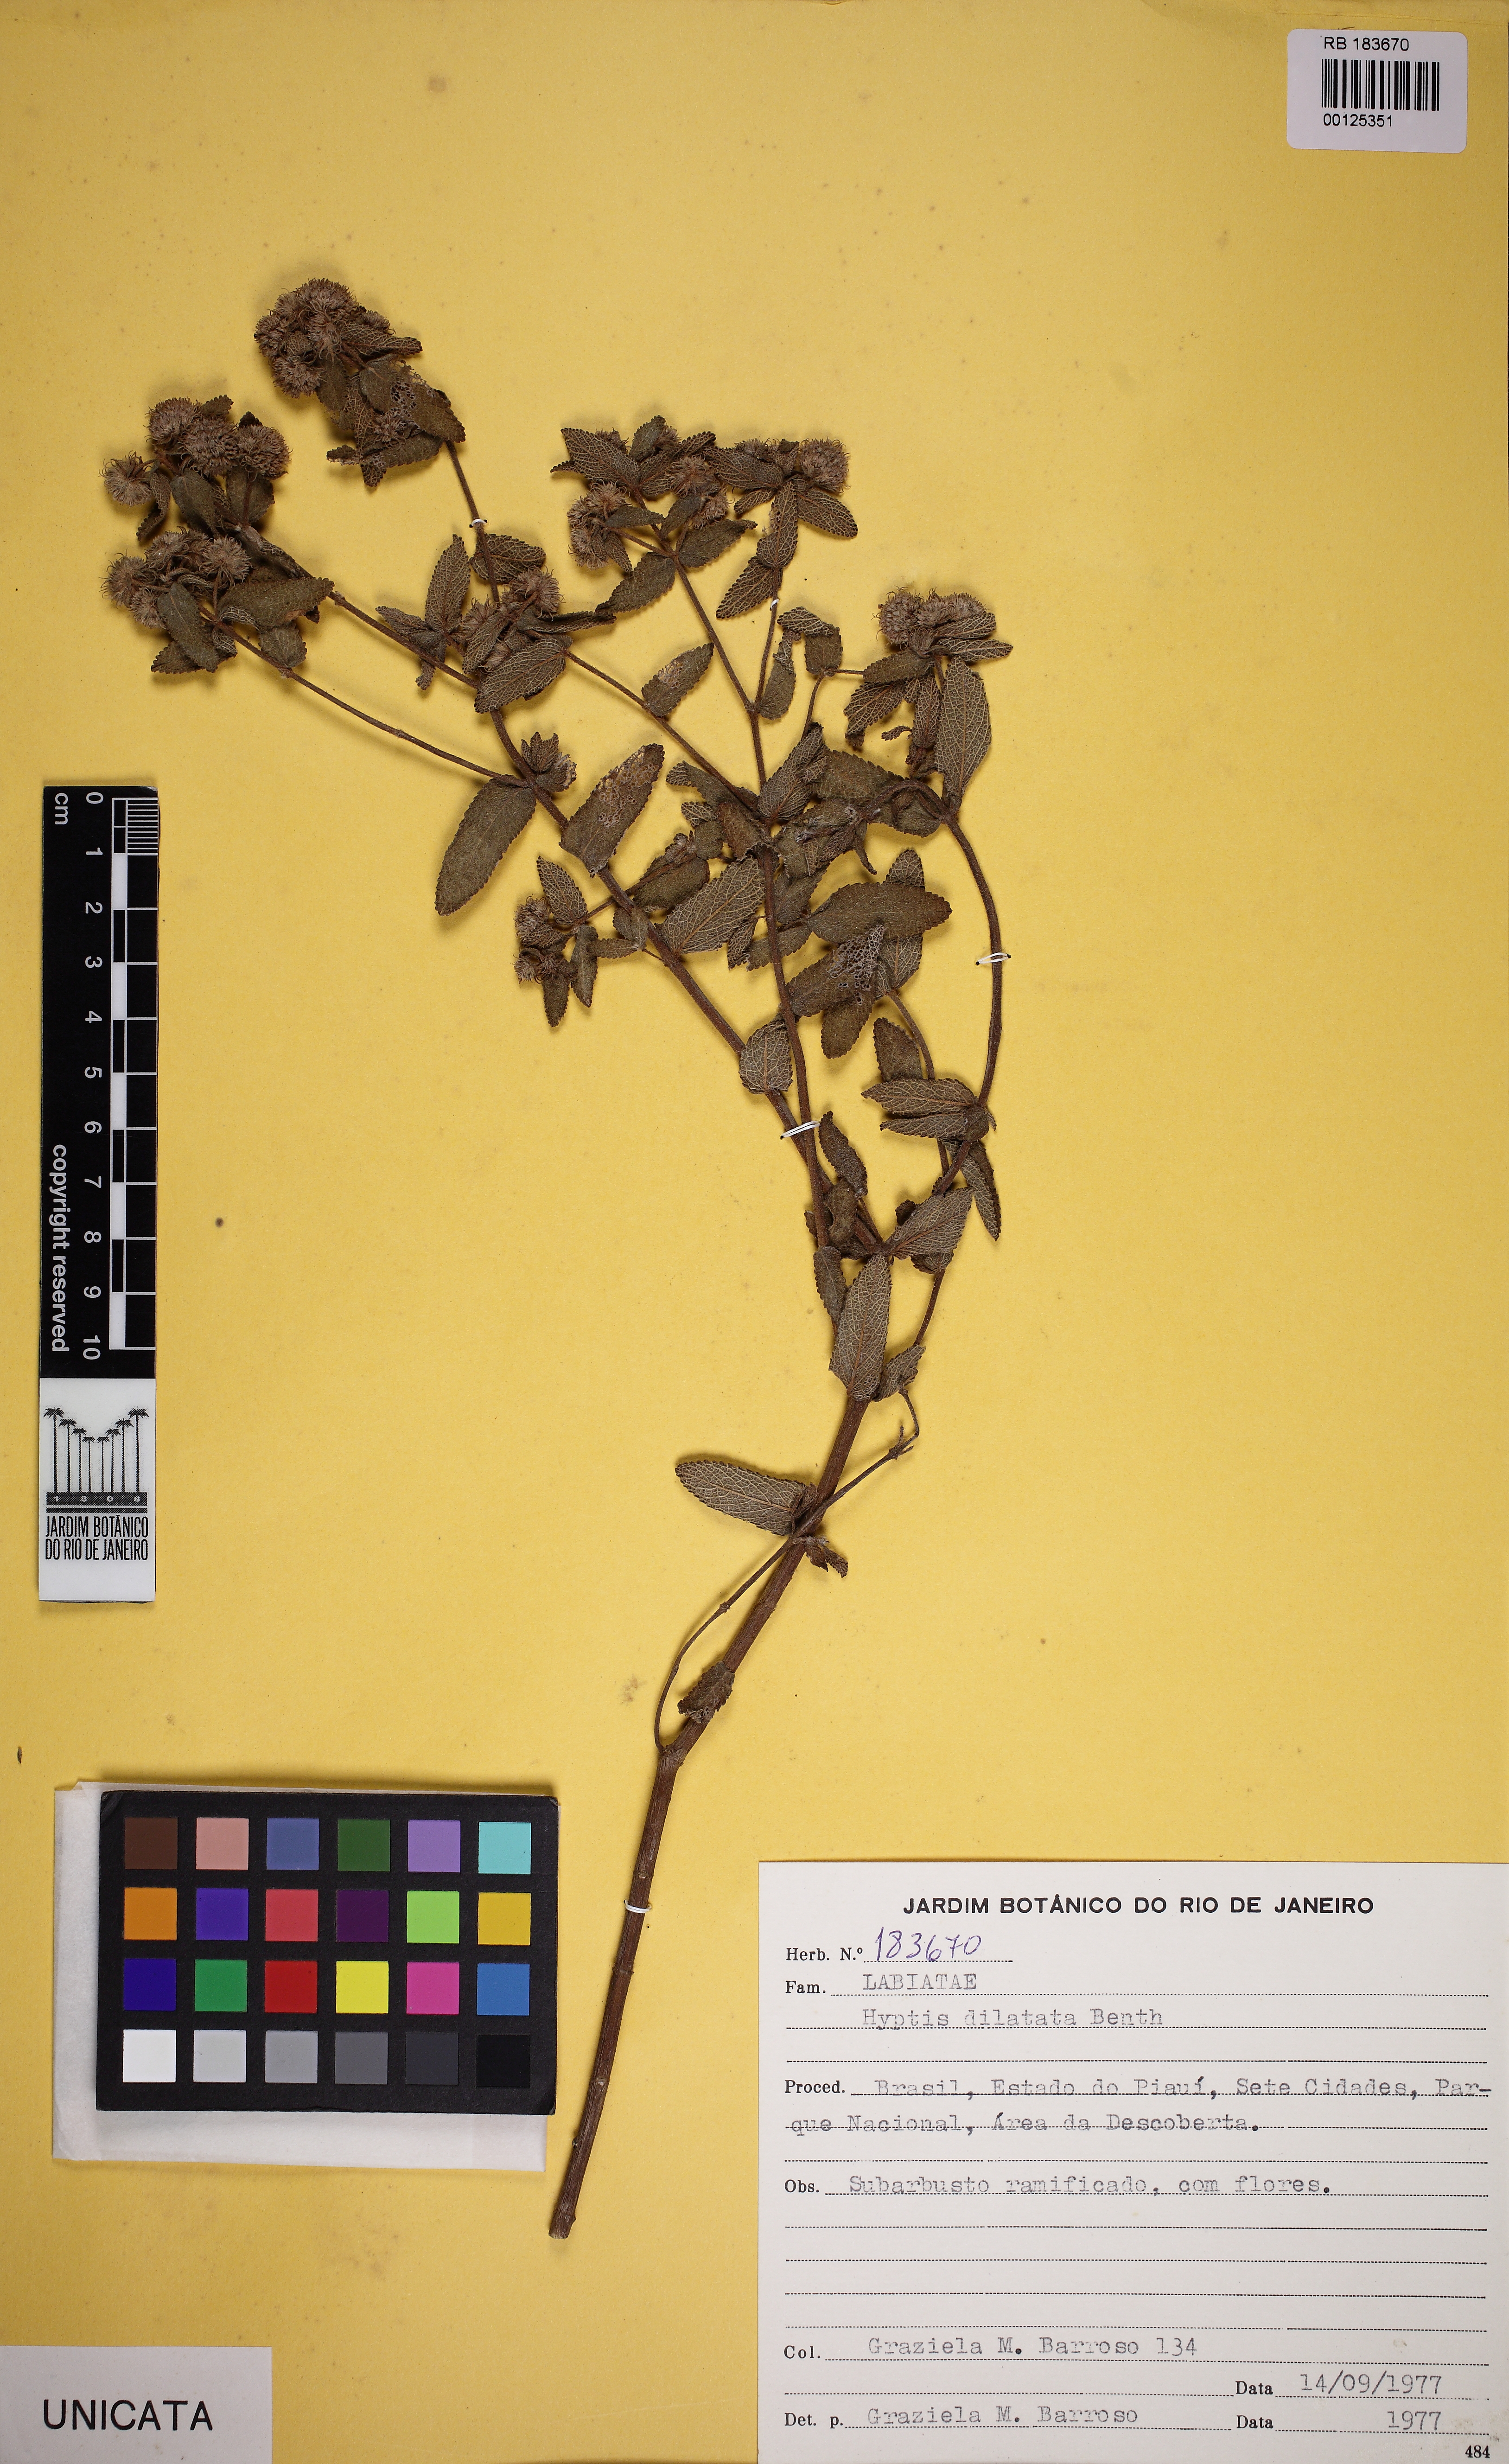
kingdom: Plantae
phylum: Tracheophyta
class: Magnoliopsida
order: Lamiales
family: Lamiaceae
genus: Hyptis
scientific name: Hyptis dilatata
